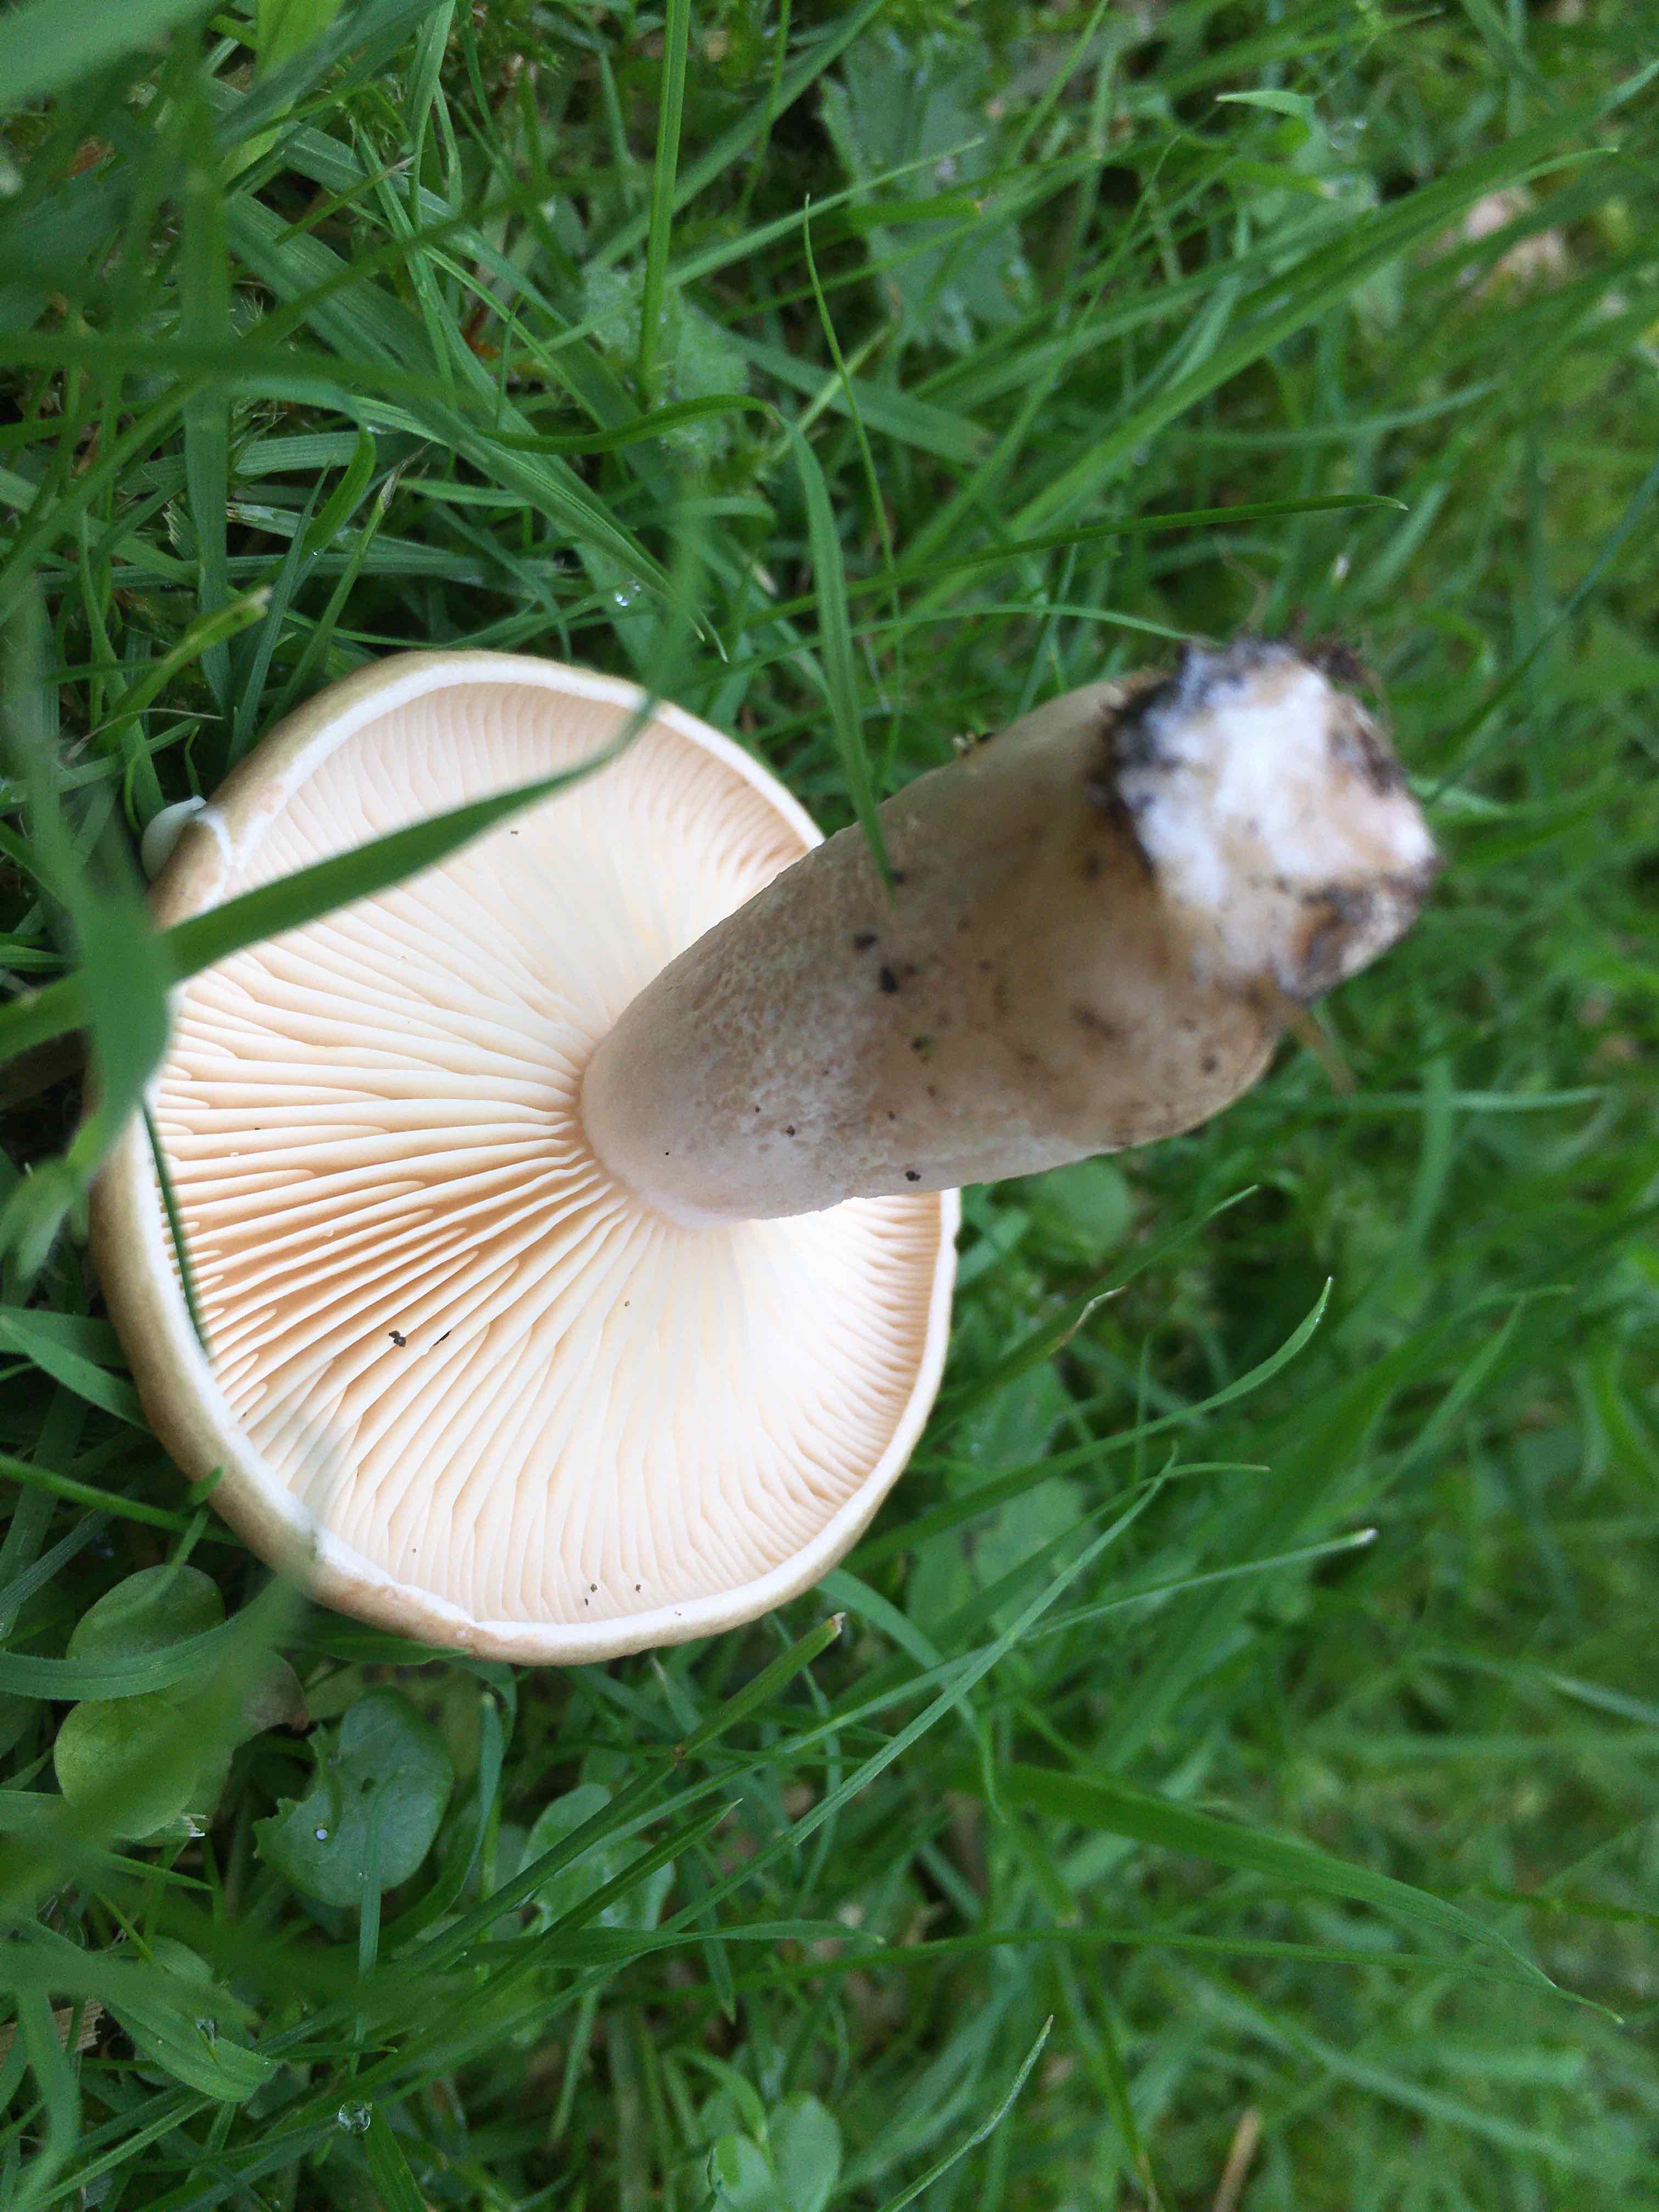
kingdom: Fungi
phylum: Basidiomycota
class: Agaricomycetes
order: Agaricales
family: Tricholomataceae
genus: Lepista
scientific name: Lepista personata
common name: bleg hekseringshat
